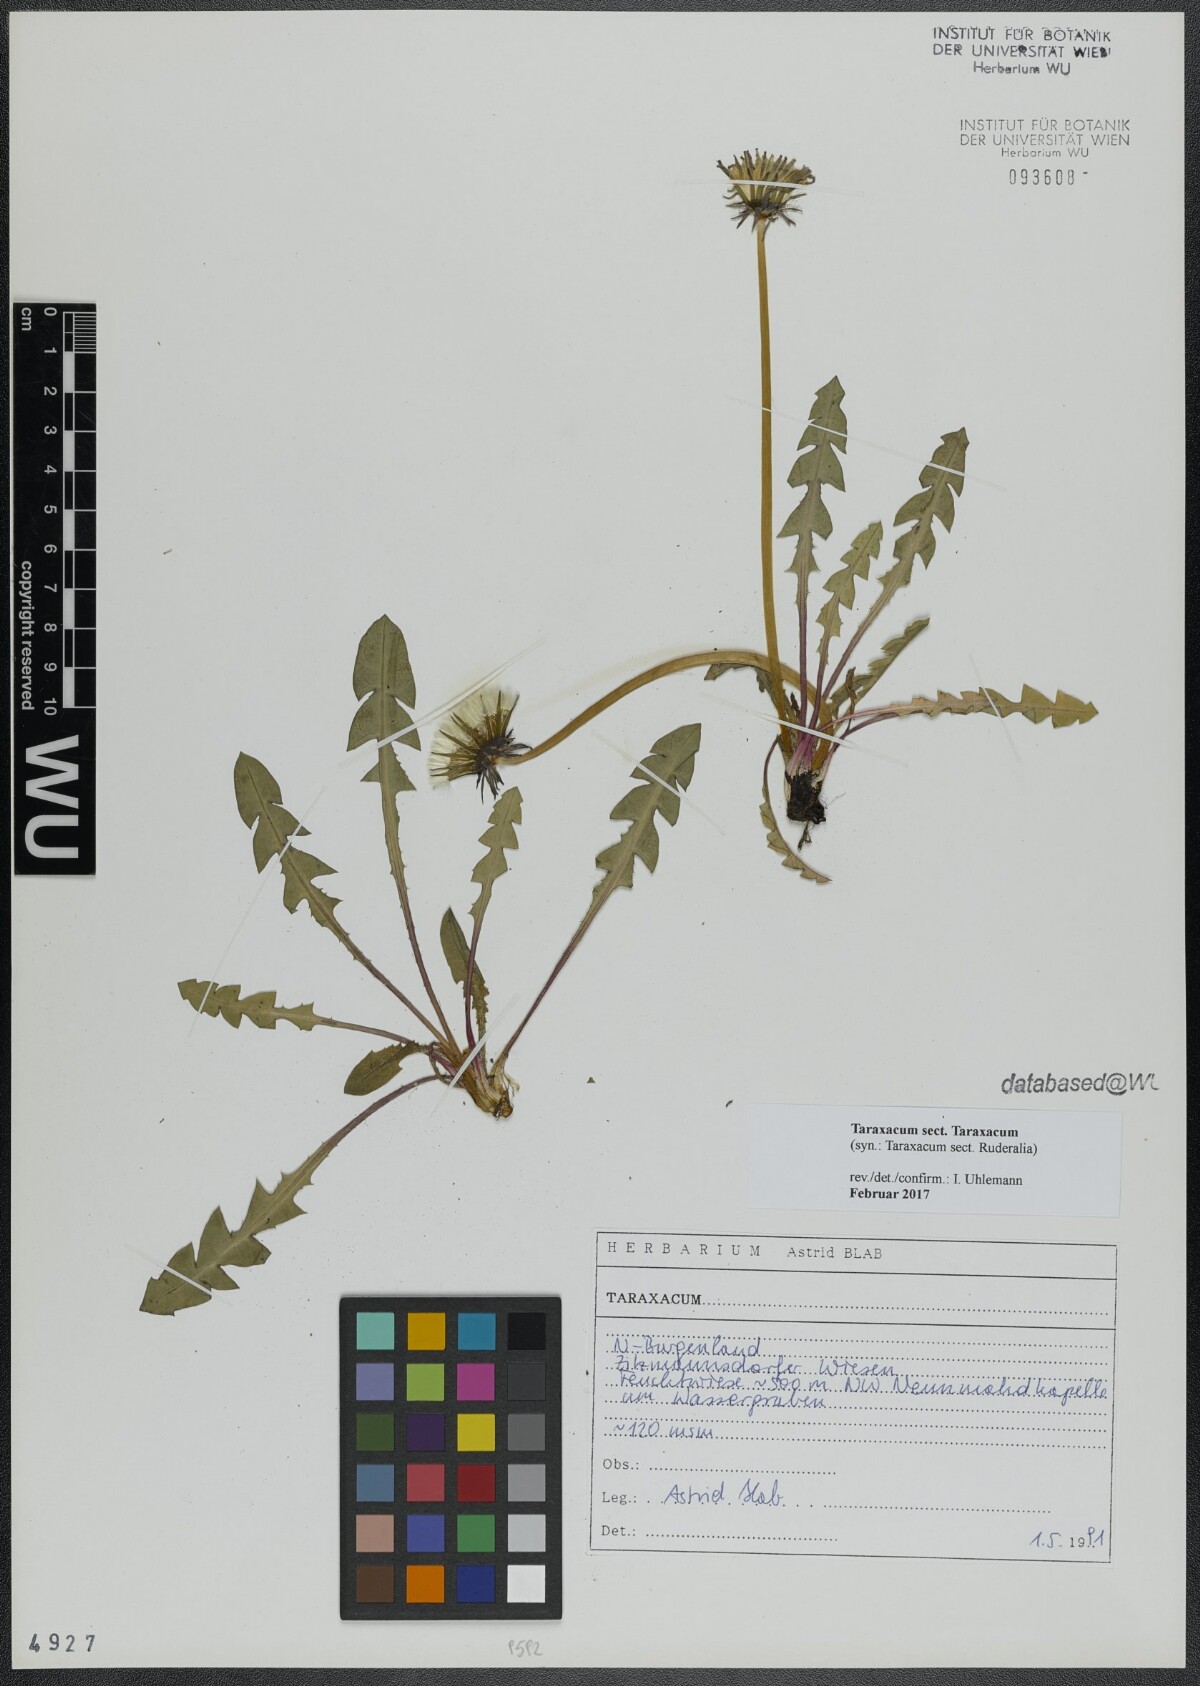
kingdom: Plantae
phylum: Tracheophyta
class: Magnoliopsida
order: Asterales
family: Asteraceae
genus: Taraxacum
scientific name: Taraxacum
